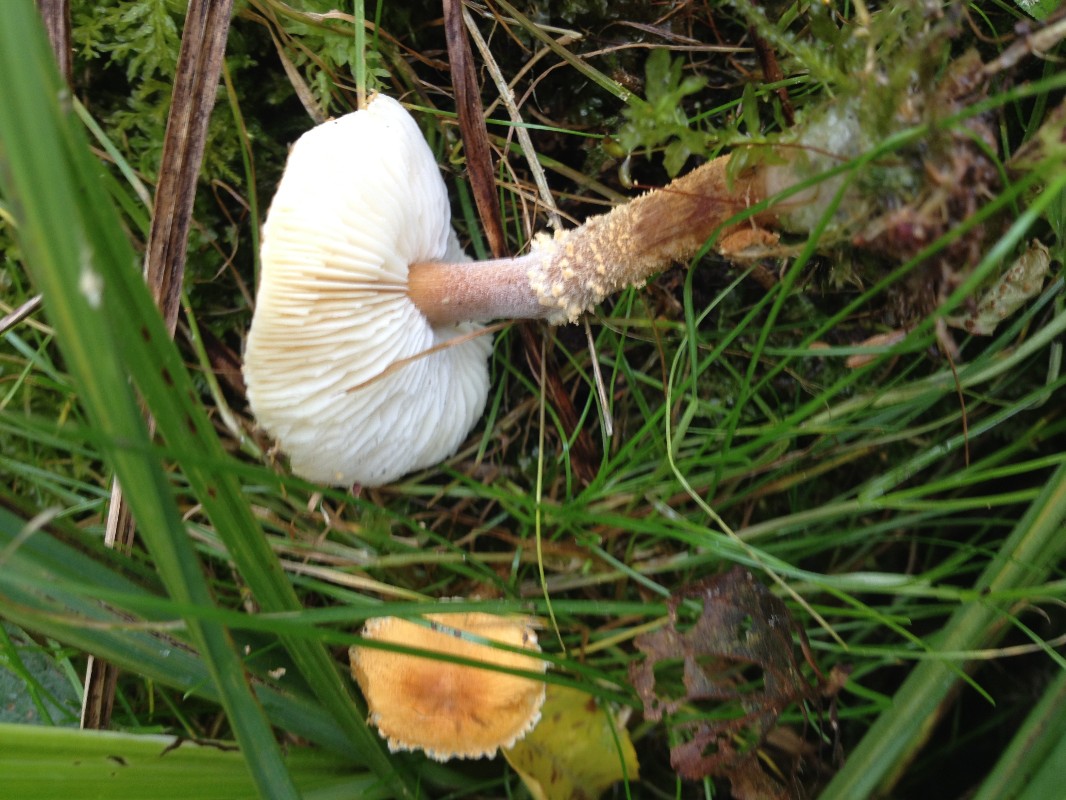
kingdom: Fungi
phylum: Basidiomycota
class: Agaricomycetes
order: Agaricales
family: Tricholomataceae
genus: Cystoderma
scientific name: Cystoderma amianthinum
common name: okkergul grynhat
